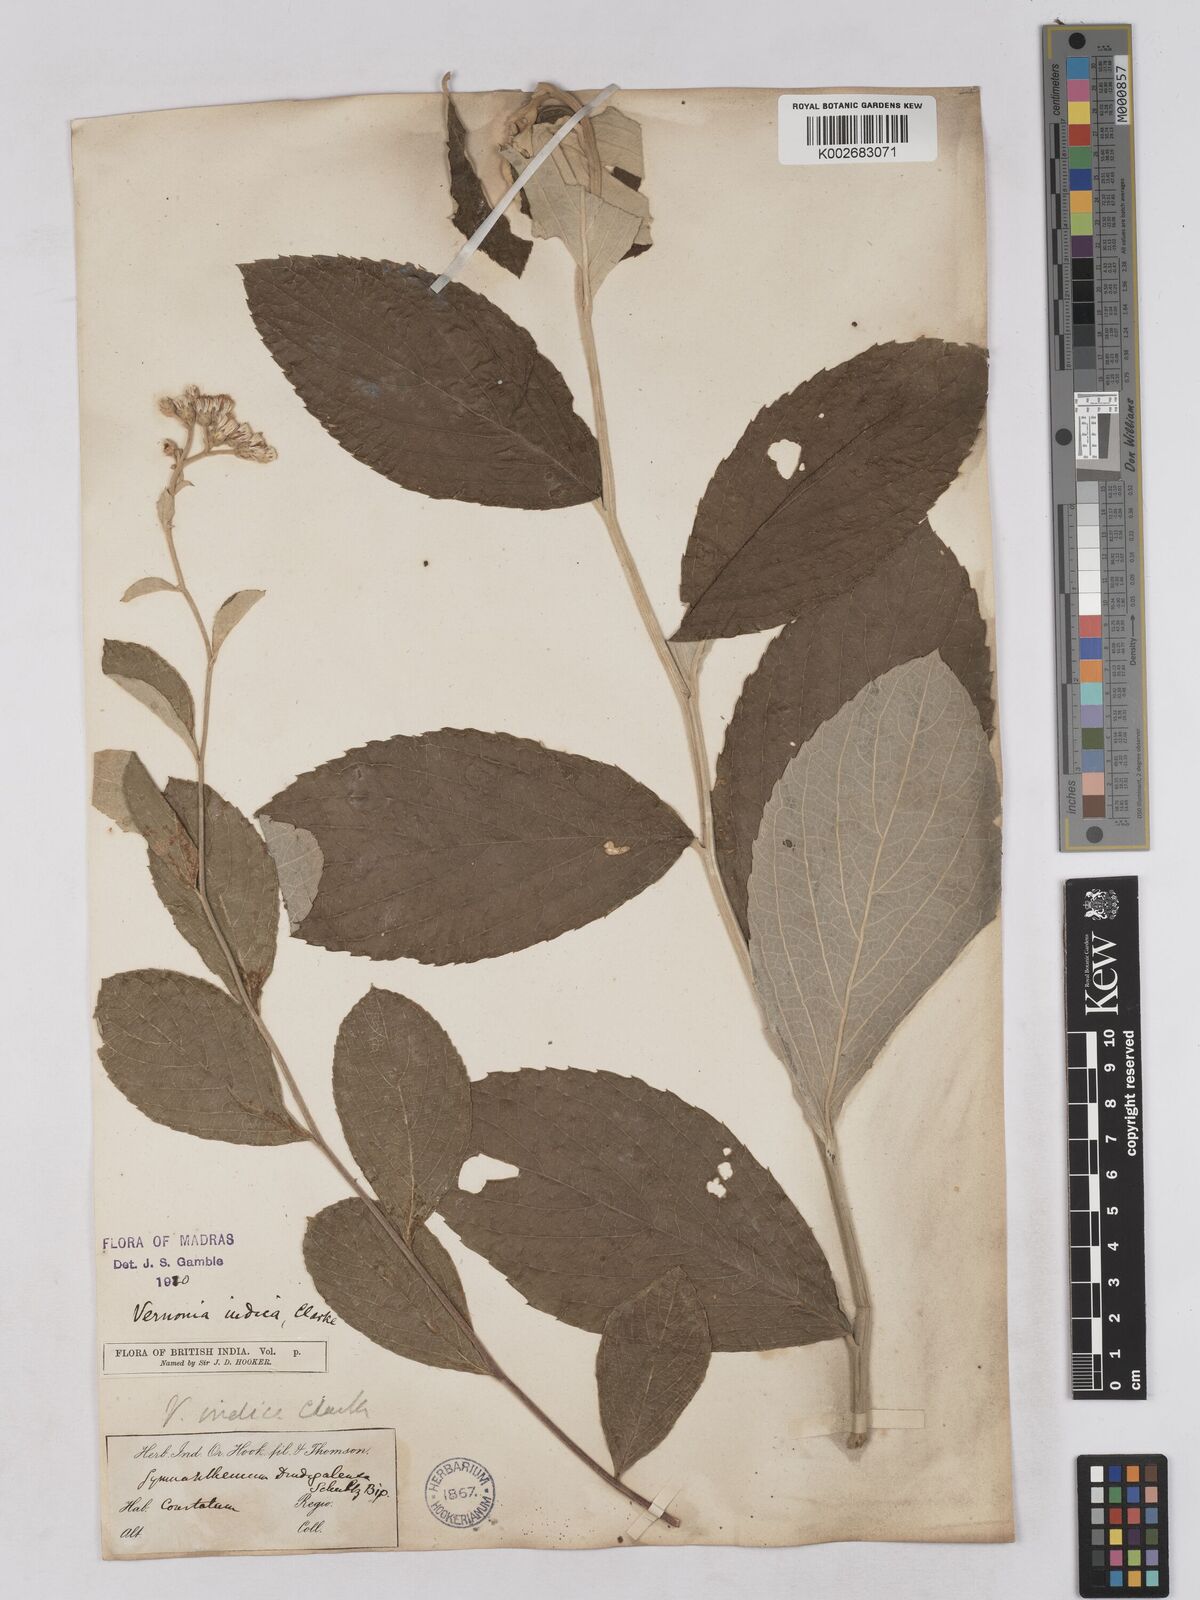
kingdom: Plantae
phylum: Tracheophyta
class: Magnoliopsida
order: Asterales
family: Asteraceae
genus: Acilepis
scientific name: Acilepis dendigulensis
